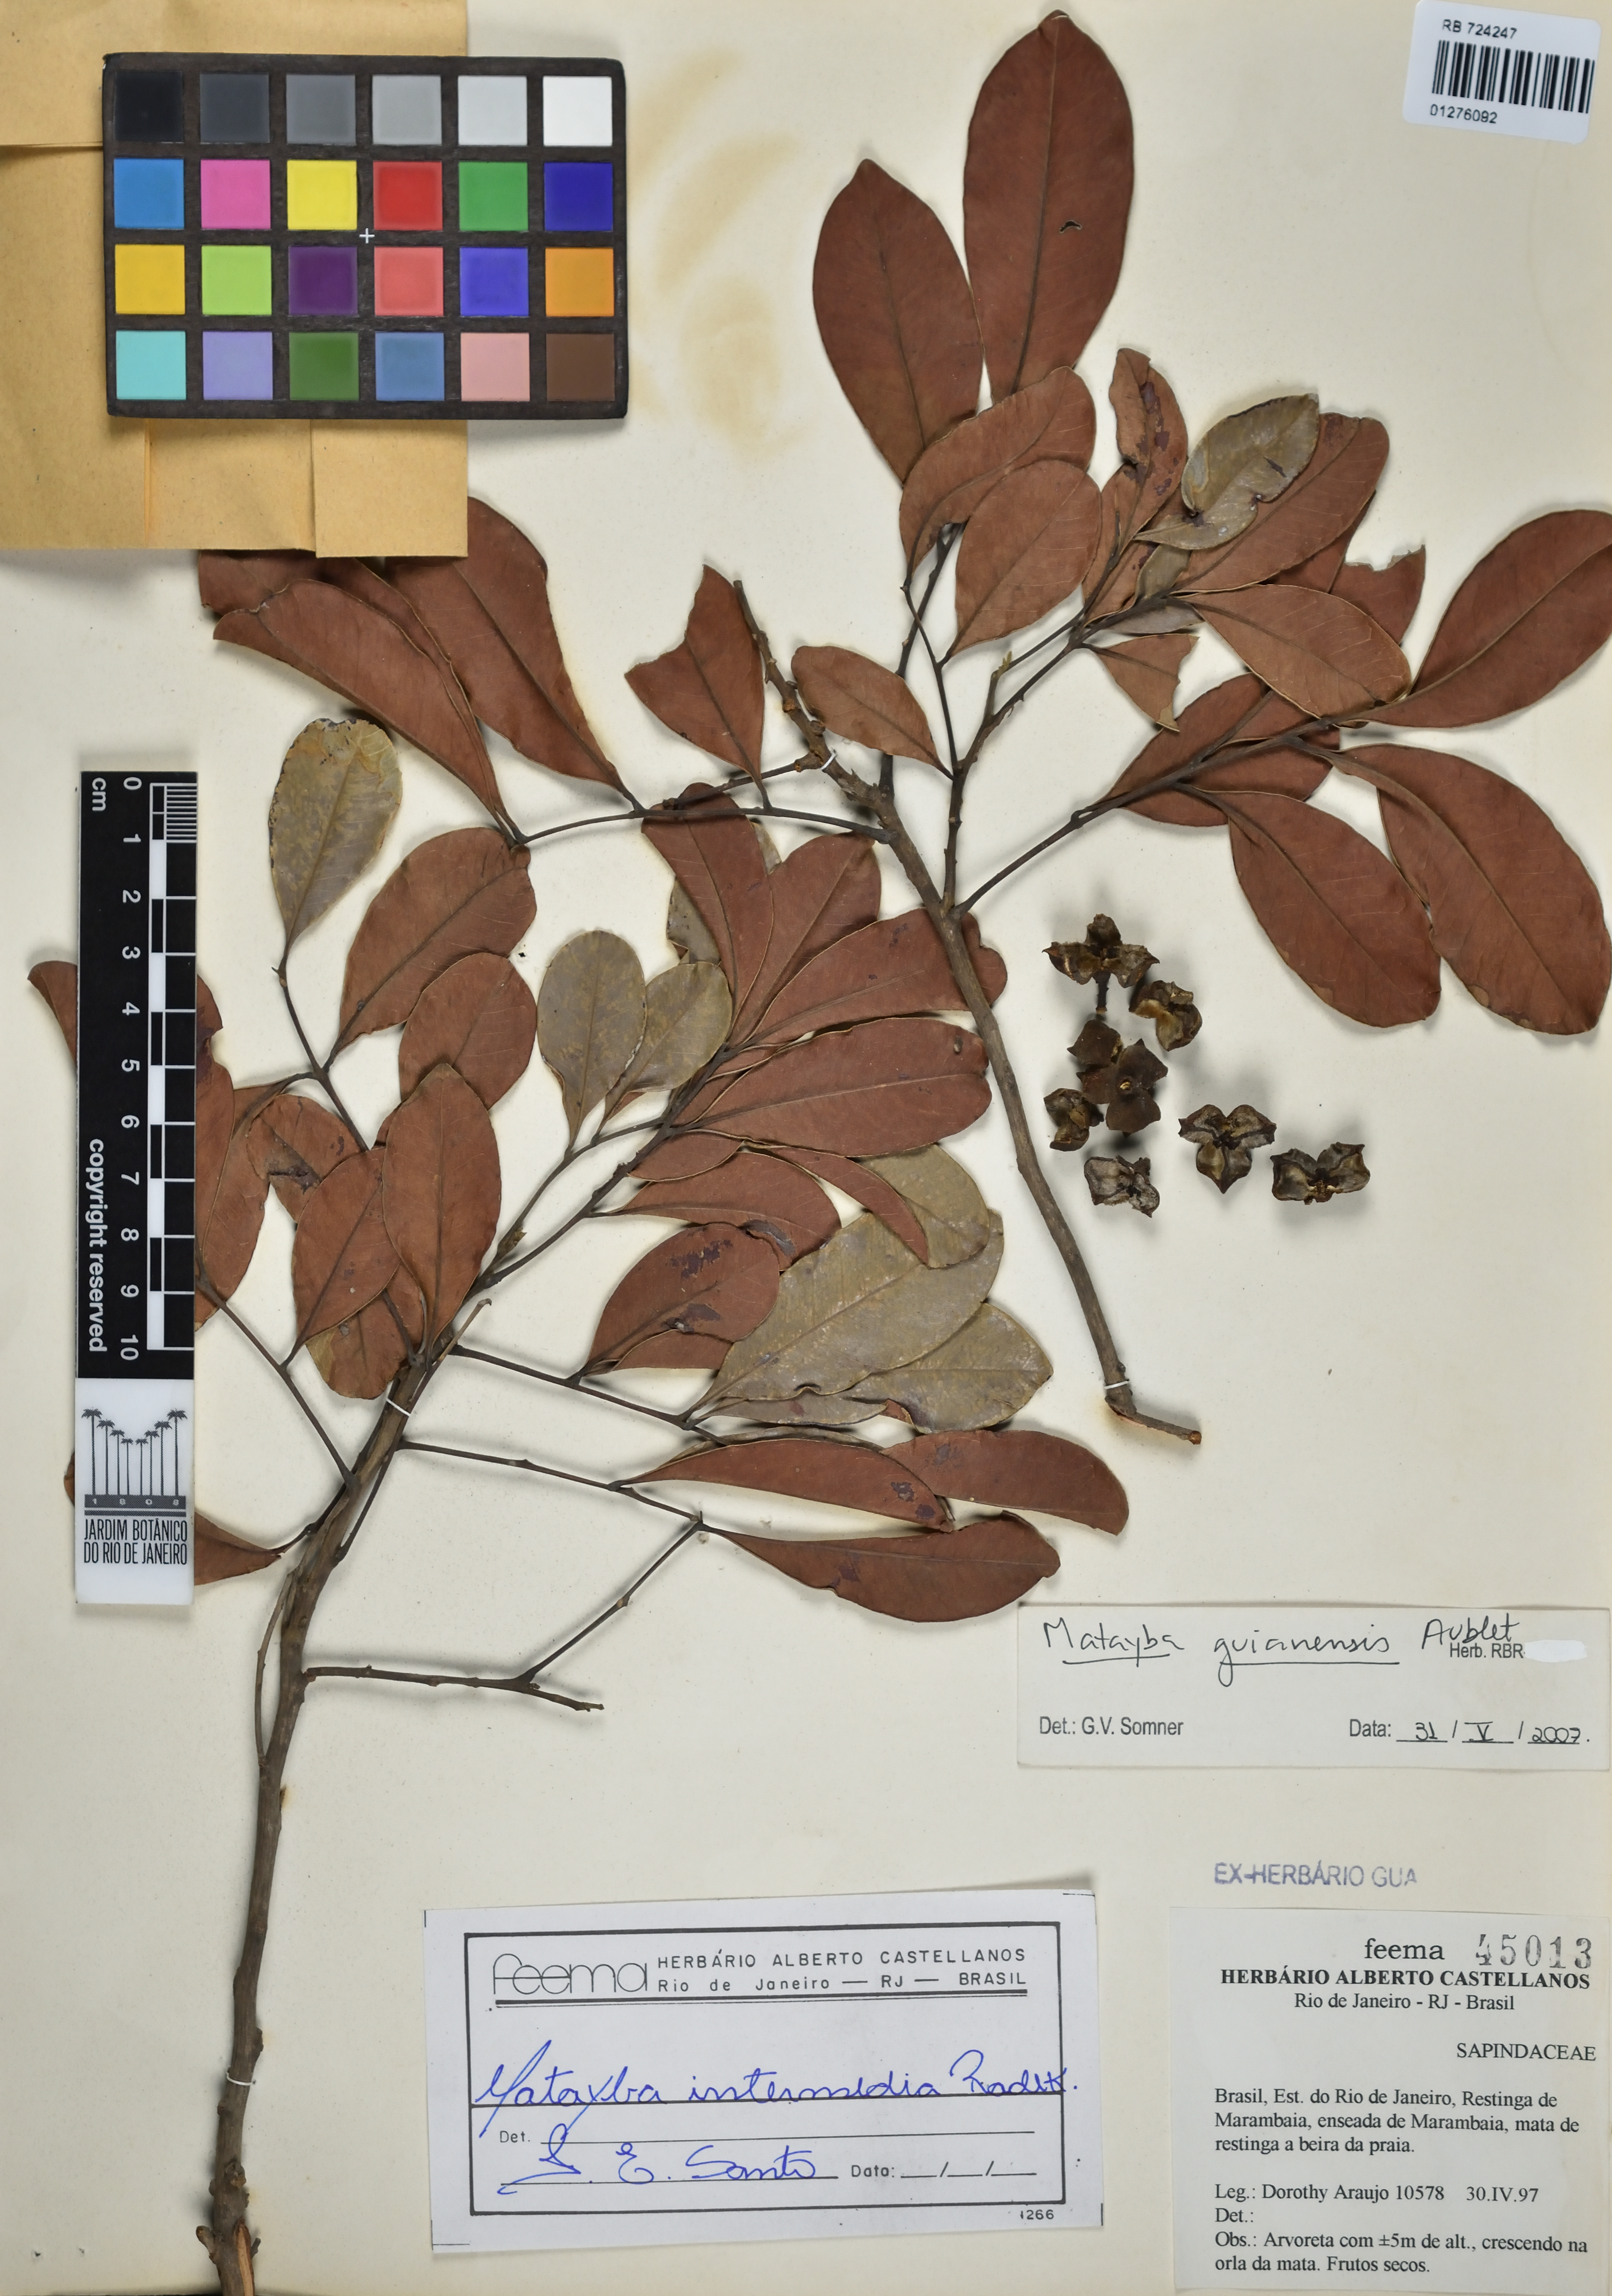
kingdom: Plantae
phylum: Tracheophyta
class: Magnoliopsida
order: Sapindales
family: Sapindaceae
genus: Matayba
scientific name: Matayba guianensis
